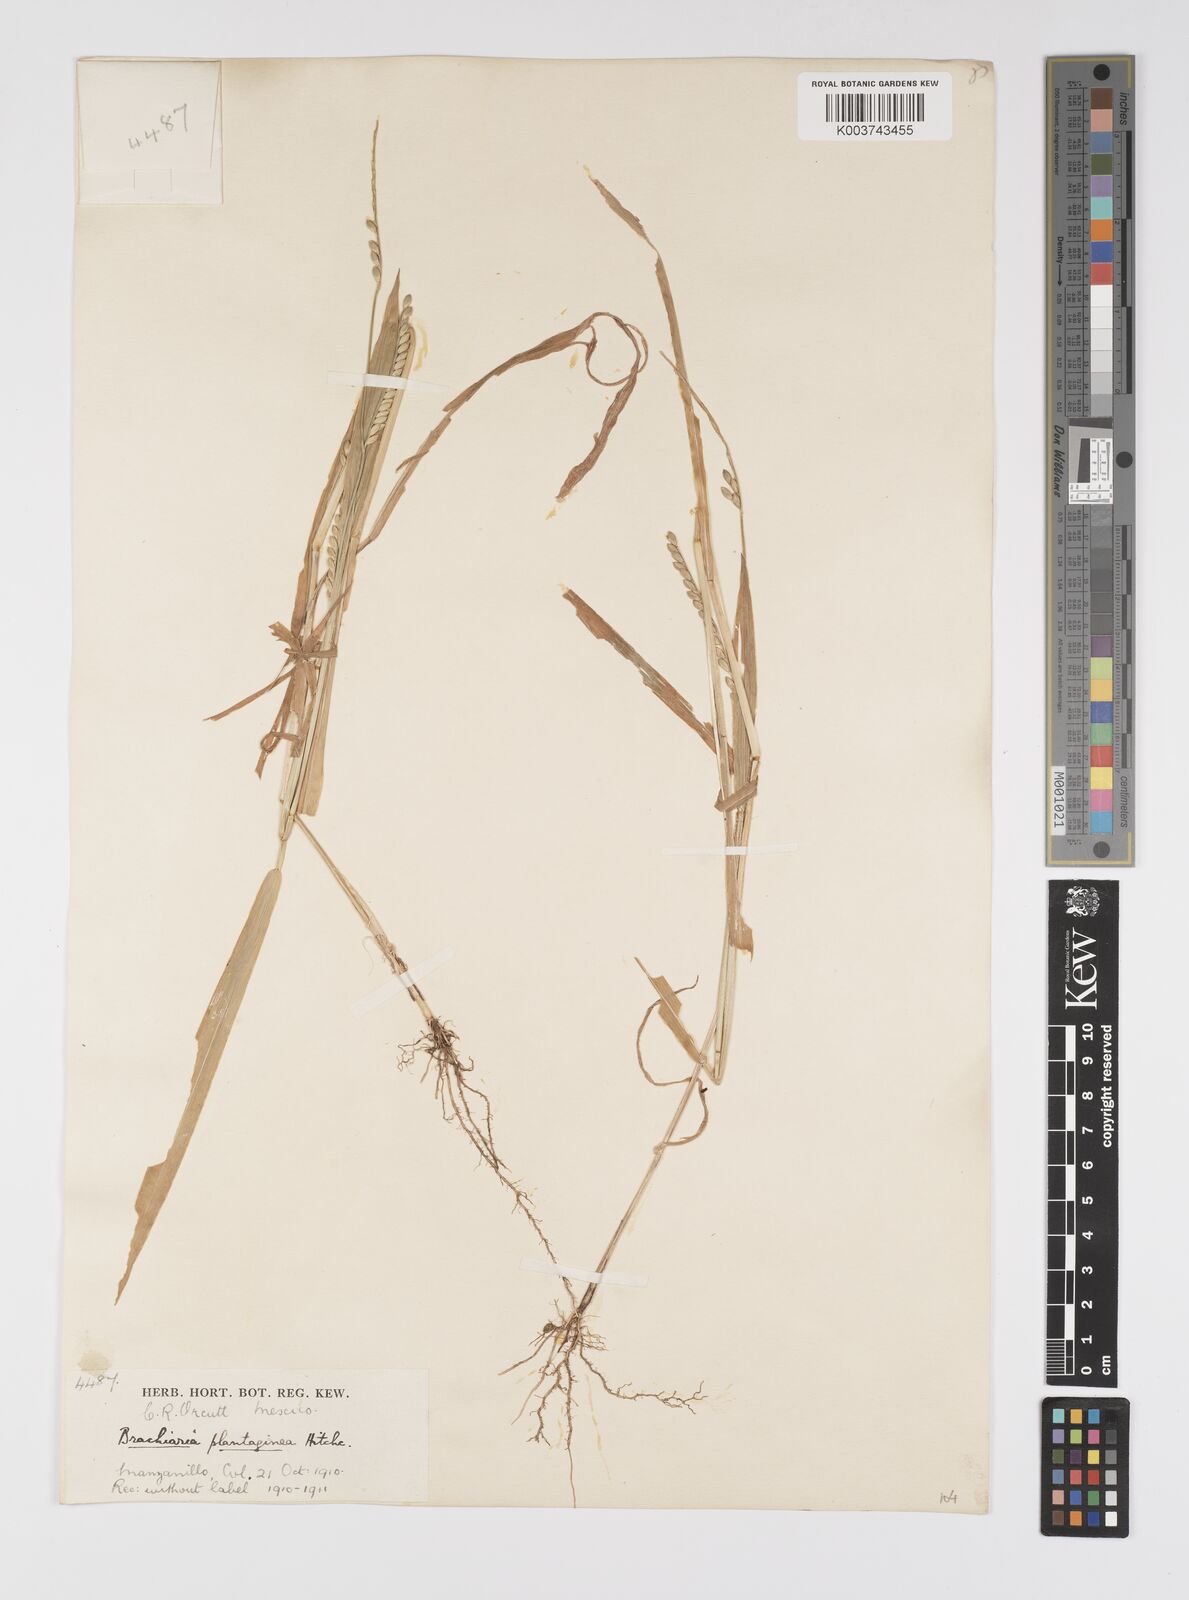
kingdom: Plantae
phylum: Tracheophyta
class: Liliopsida
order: Poales
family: Poaceae
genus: Urochloa
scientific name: Urochloa plantaginea
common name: Plantain signalgrass
